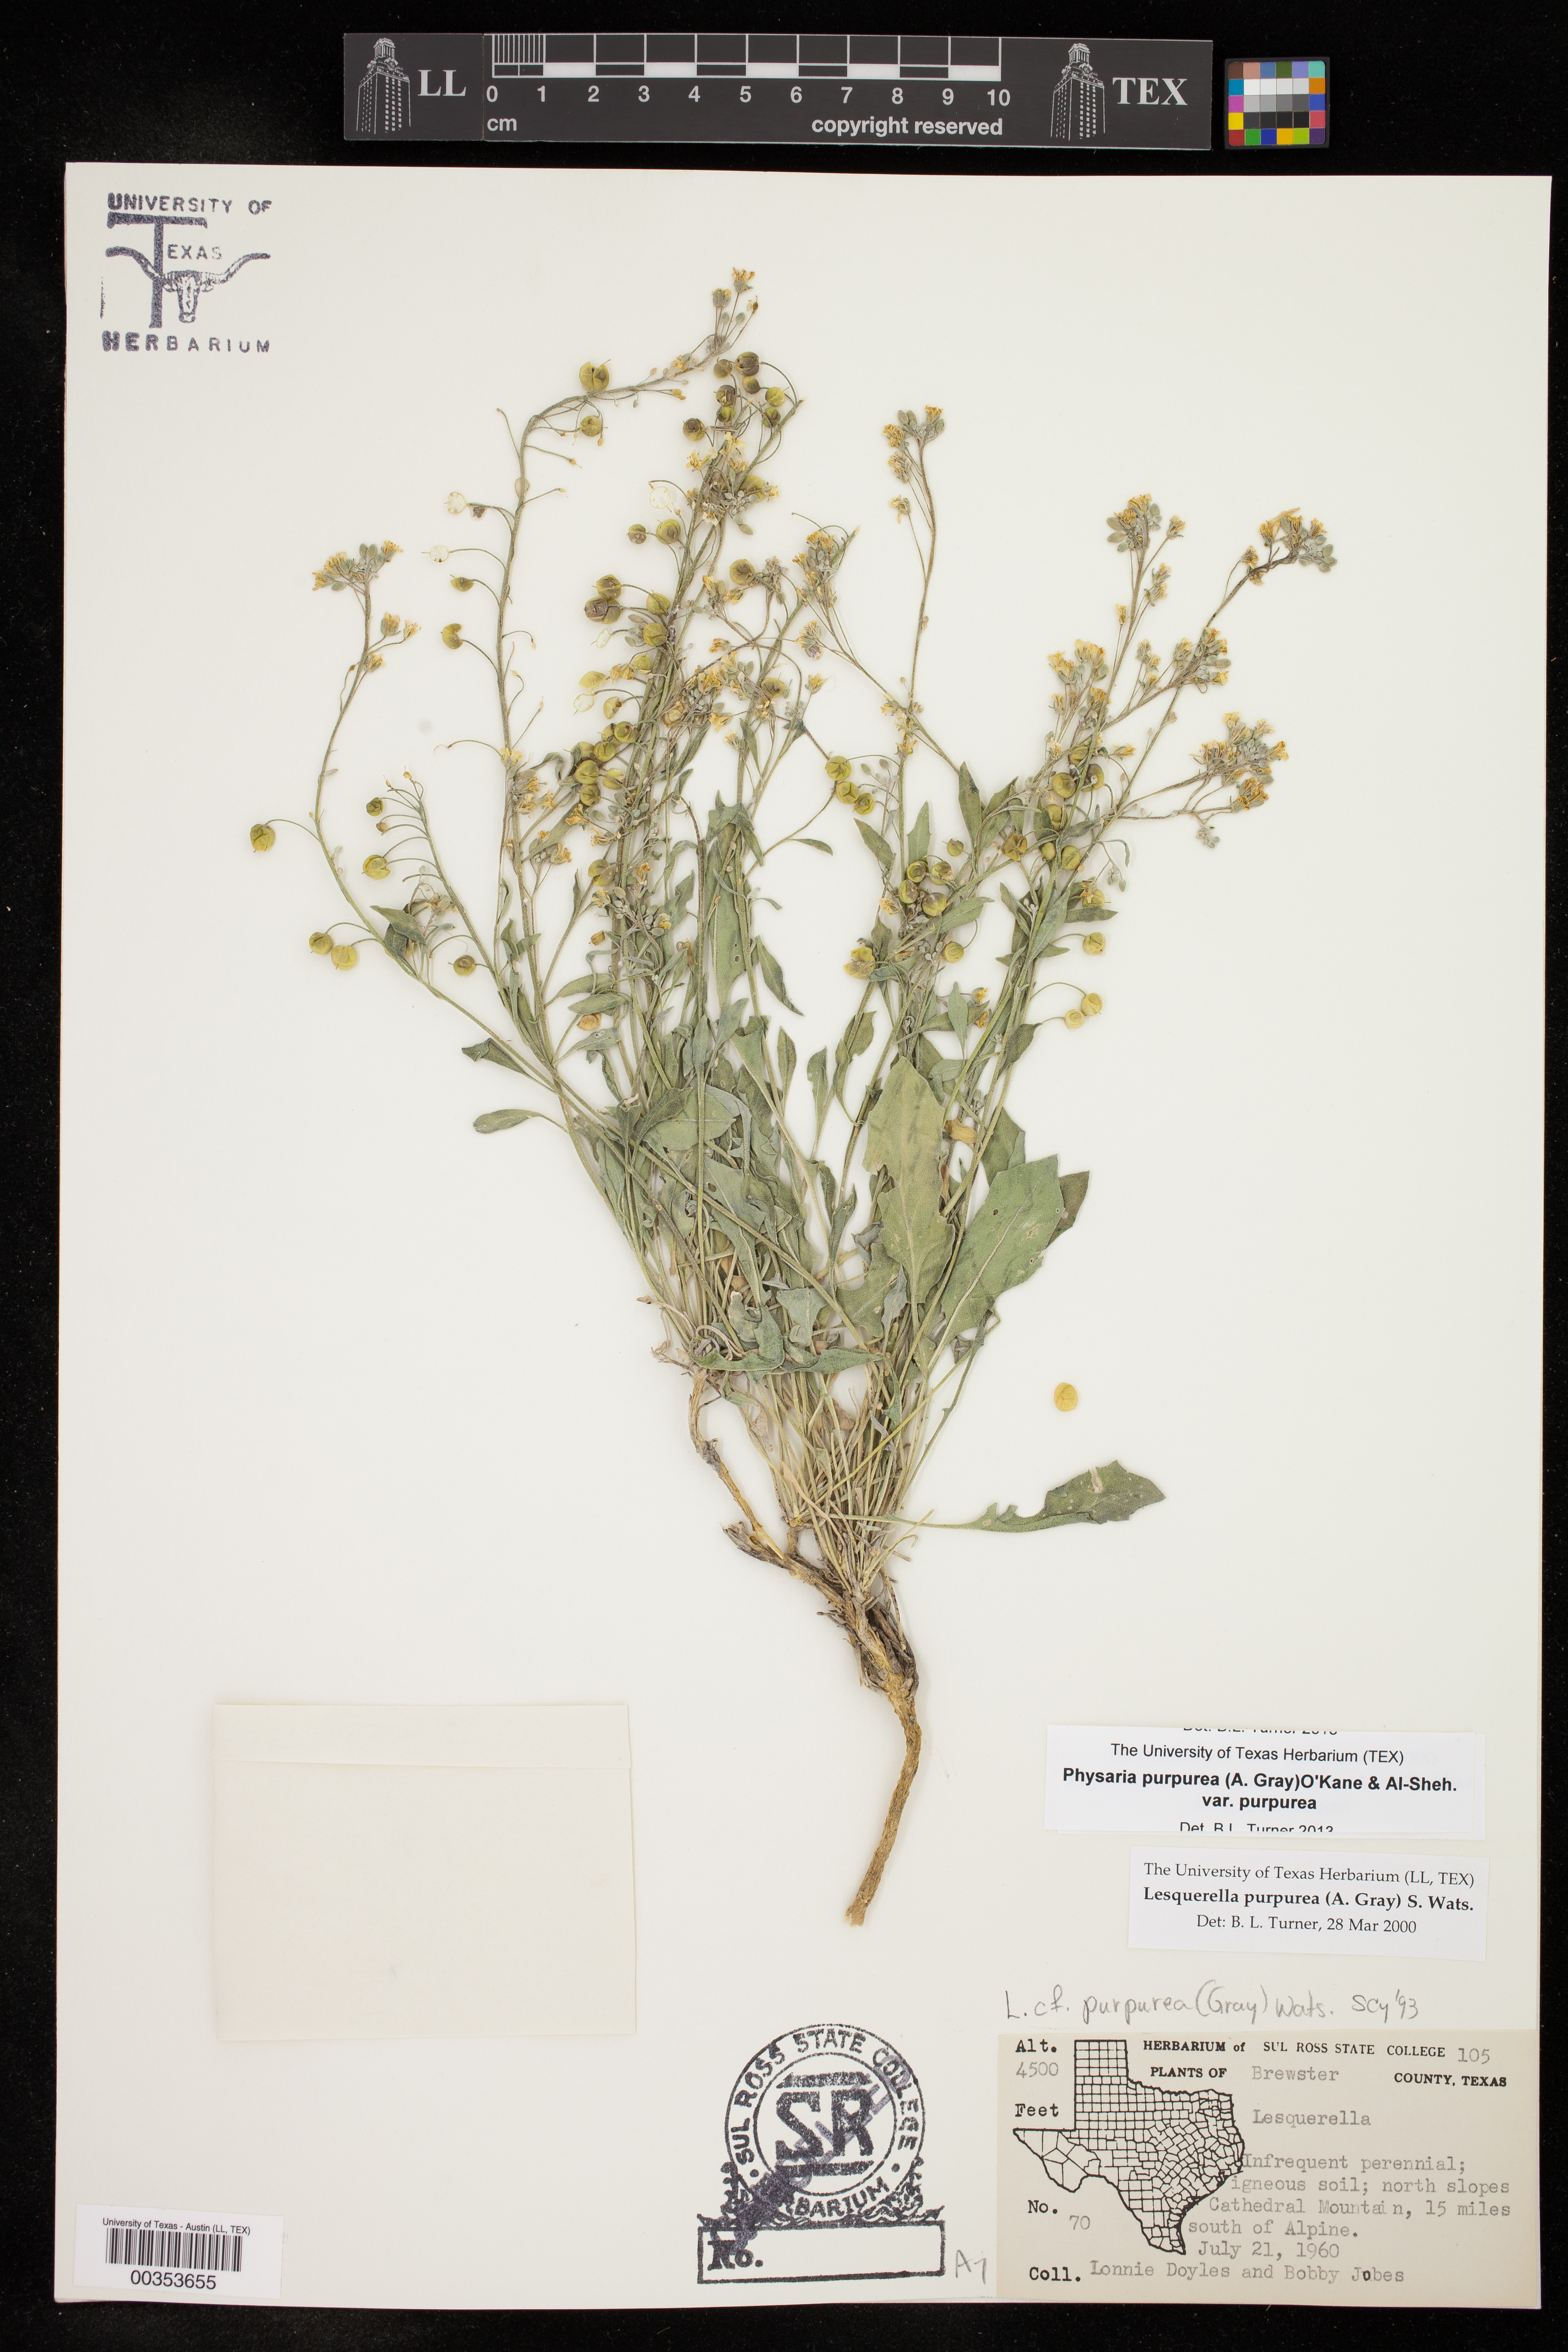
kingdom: Plantae
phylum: Tracheophyta
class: Magnoliopsida
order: Brassicales
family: Brassicaceae
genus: Physaria
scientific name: Physaria purpurea
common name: Rose bladderpod
